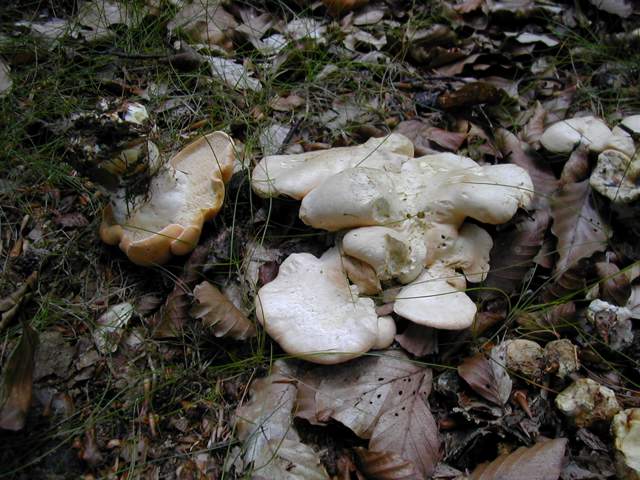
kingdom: Fungi
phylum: Basidiomycota
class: Agaricomycetes
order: Cantharellales
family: Hydnaceae
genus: Hydnum
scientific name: Hydnum slovenicum
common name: slovensk pigsvamp
